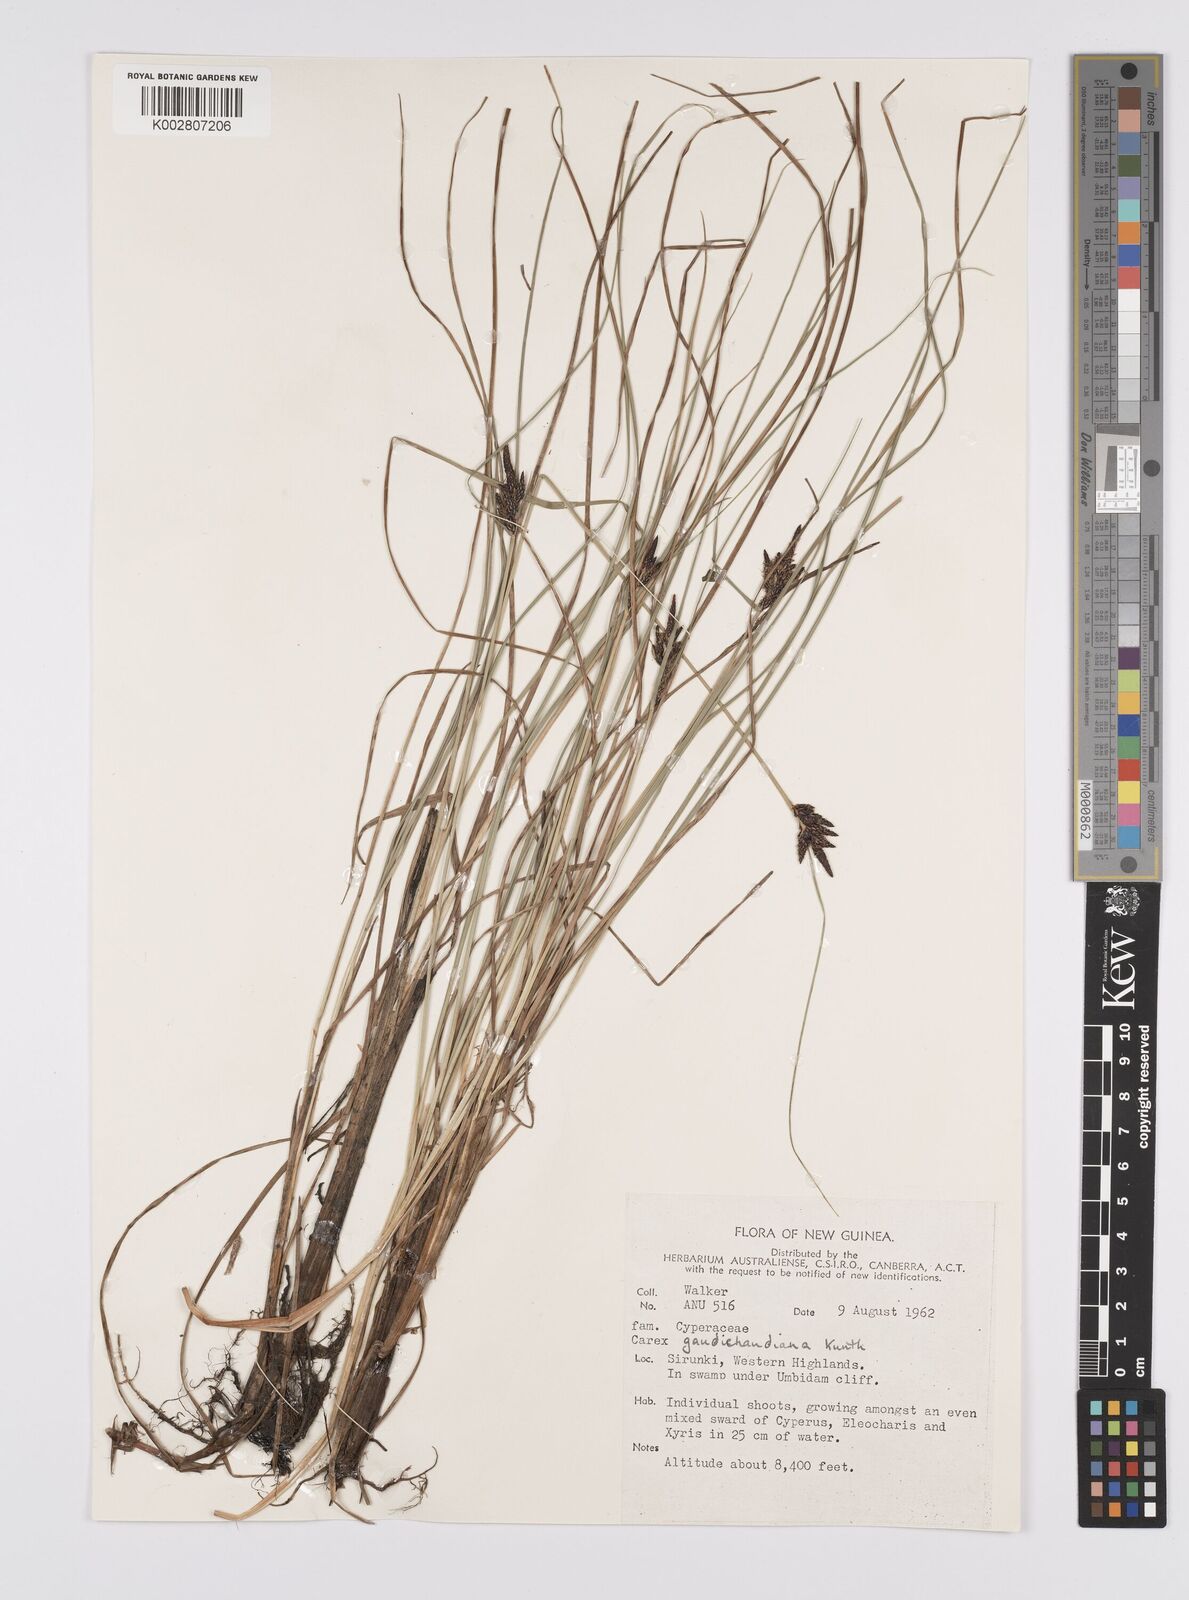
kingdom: Plantae
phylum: Tracheophyta
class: Liliopsida
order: Poales
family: Cyperaceae
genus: Carex
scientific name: Carex gaudichaudiana
